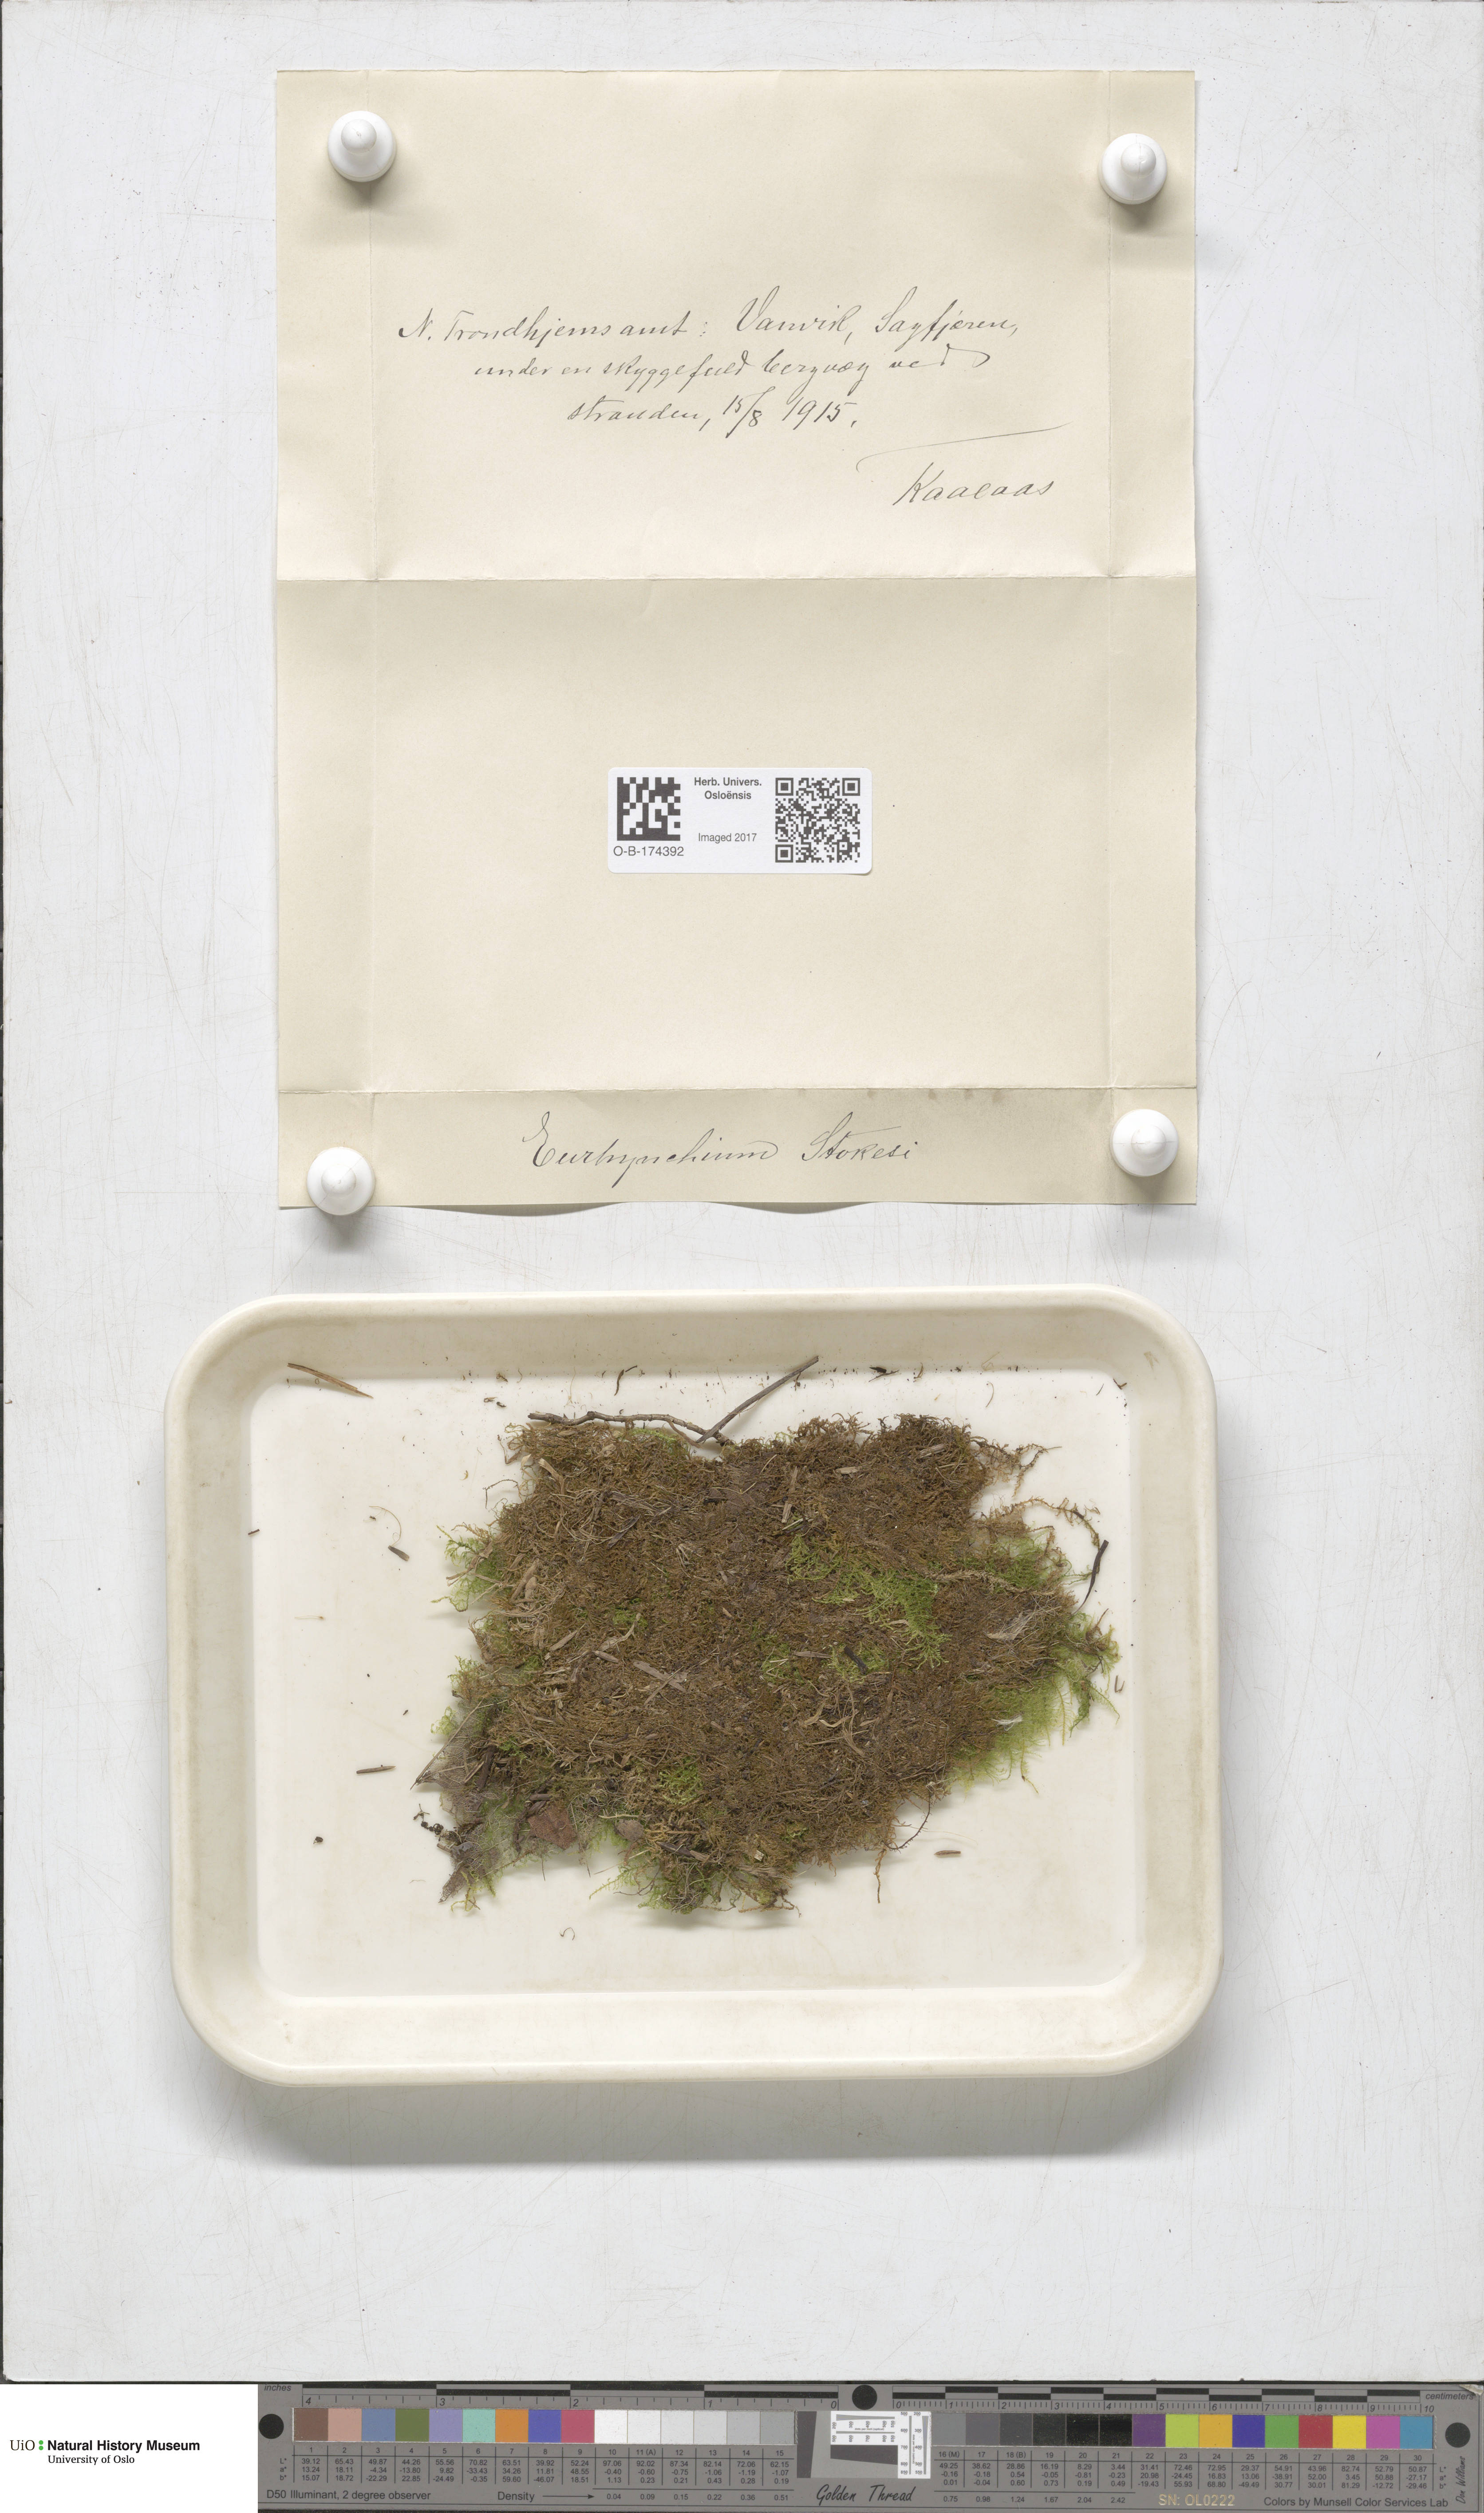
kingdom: Plantae
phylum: Bryophyta
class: Bryopsida
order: Hypnales
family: Brachytheciaceae
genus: Kindbergia
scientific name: Kindbergia praelonga
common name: Slender beaked moss
